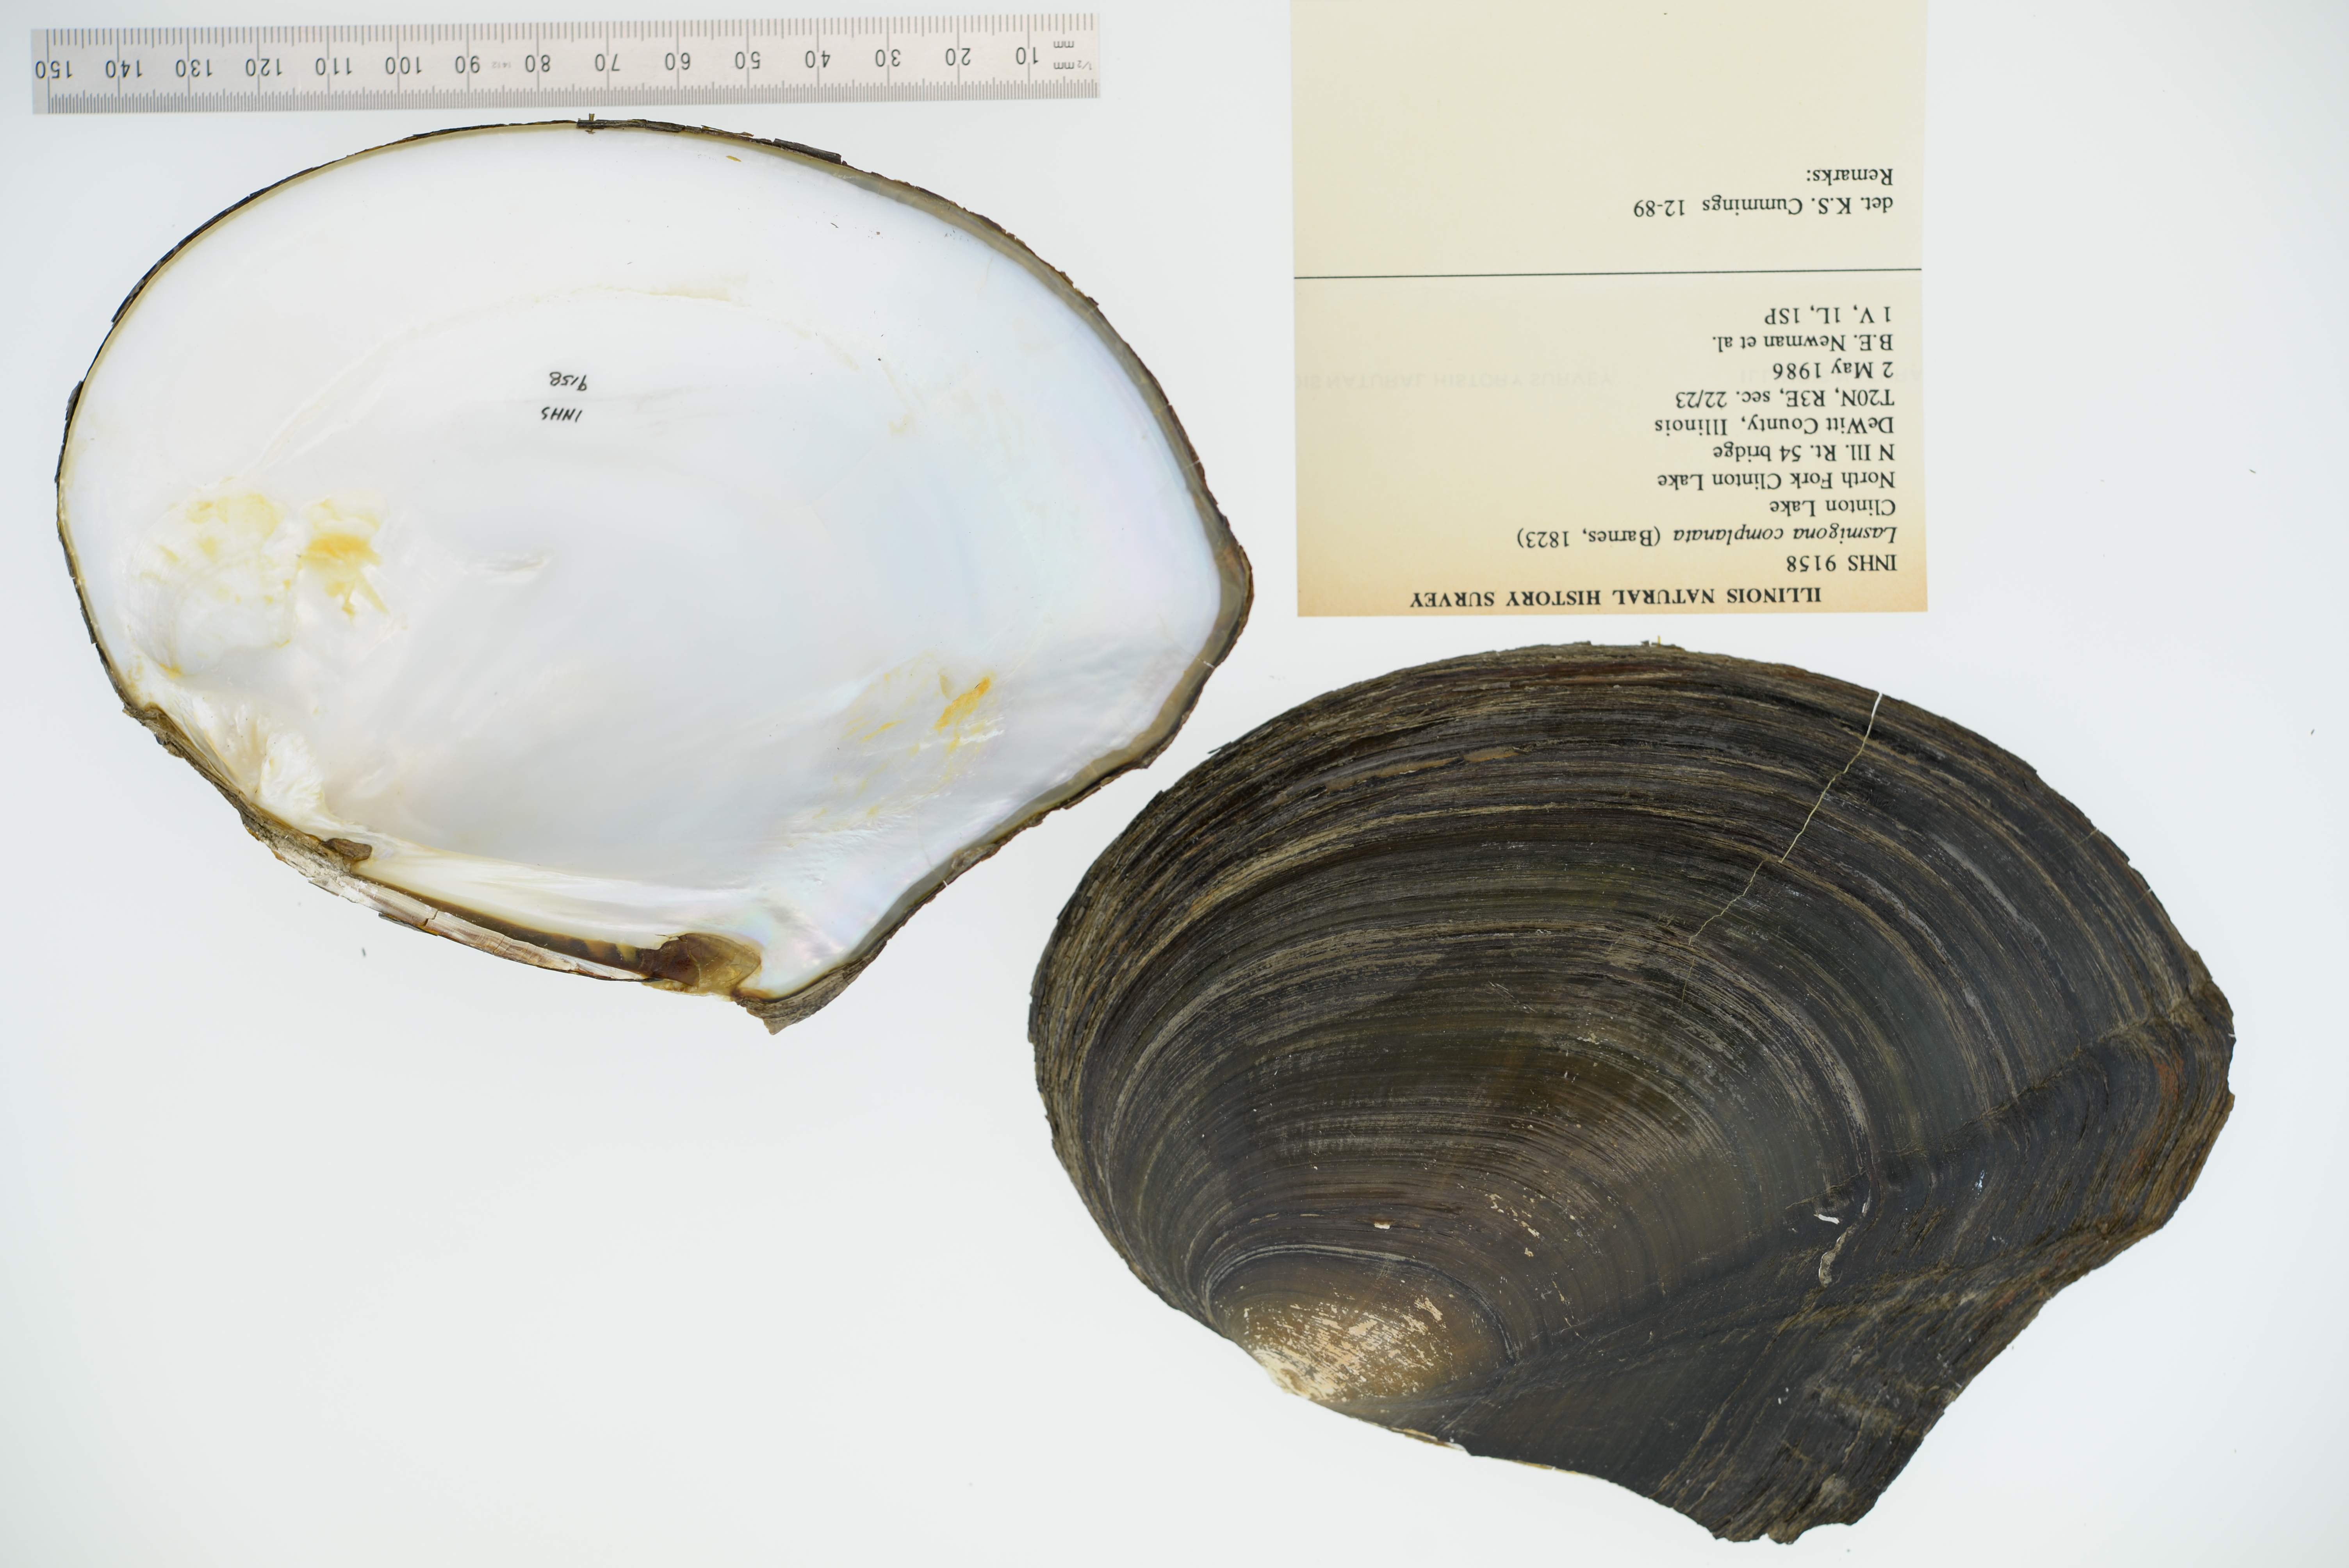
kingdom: Animalia
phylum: Mollusca
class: Bivalvia
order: Unionida
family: Unionidae
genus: Lasmigona
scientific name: Lasmigona complanata
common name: White heelsplitter
